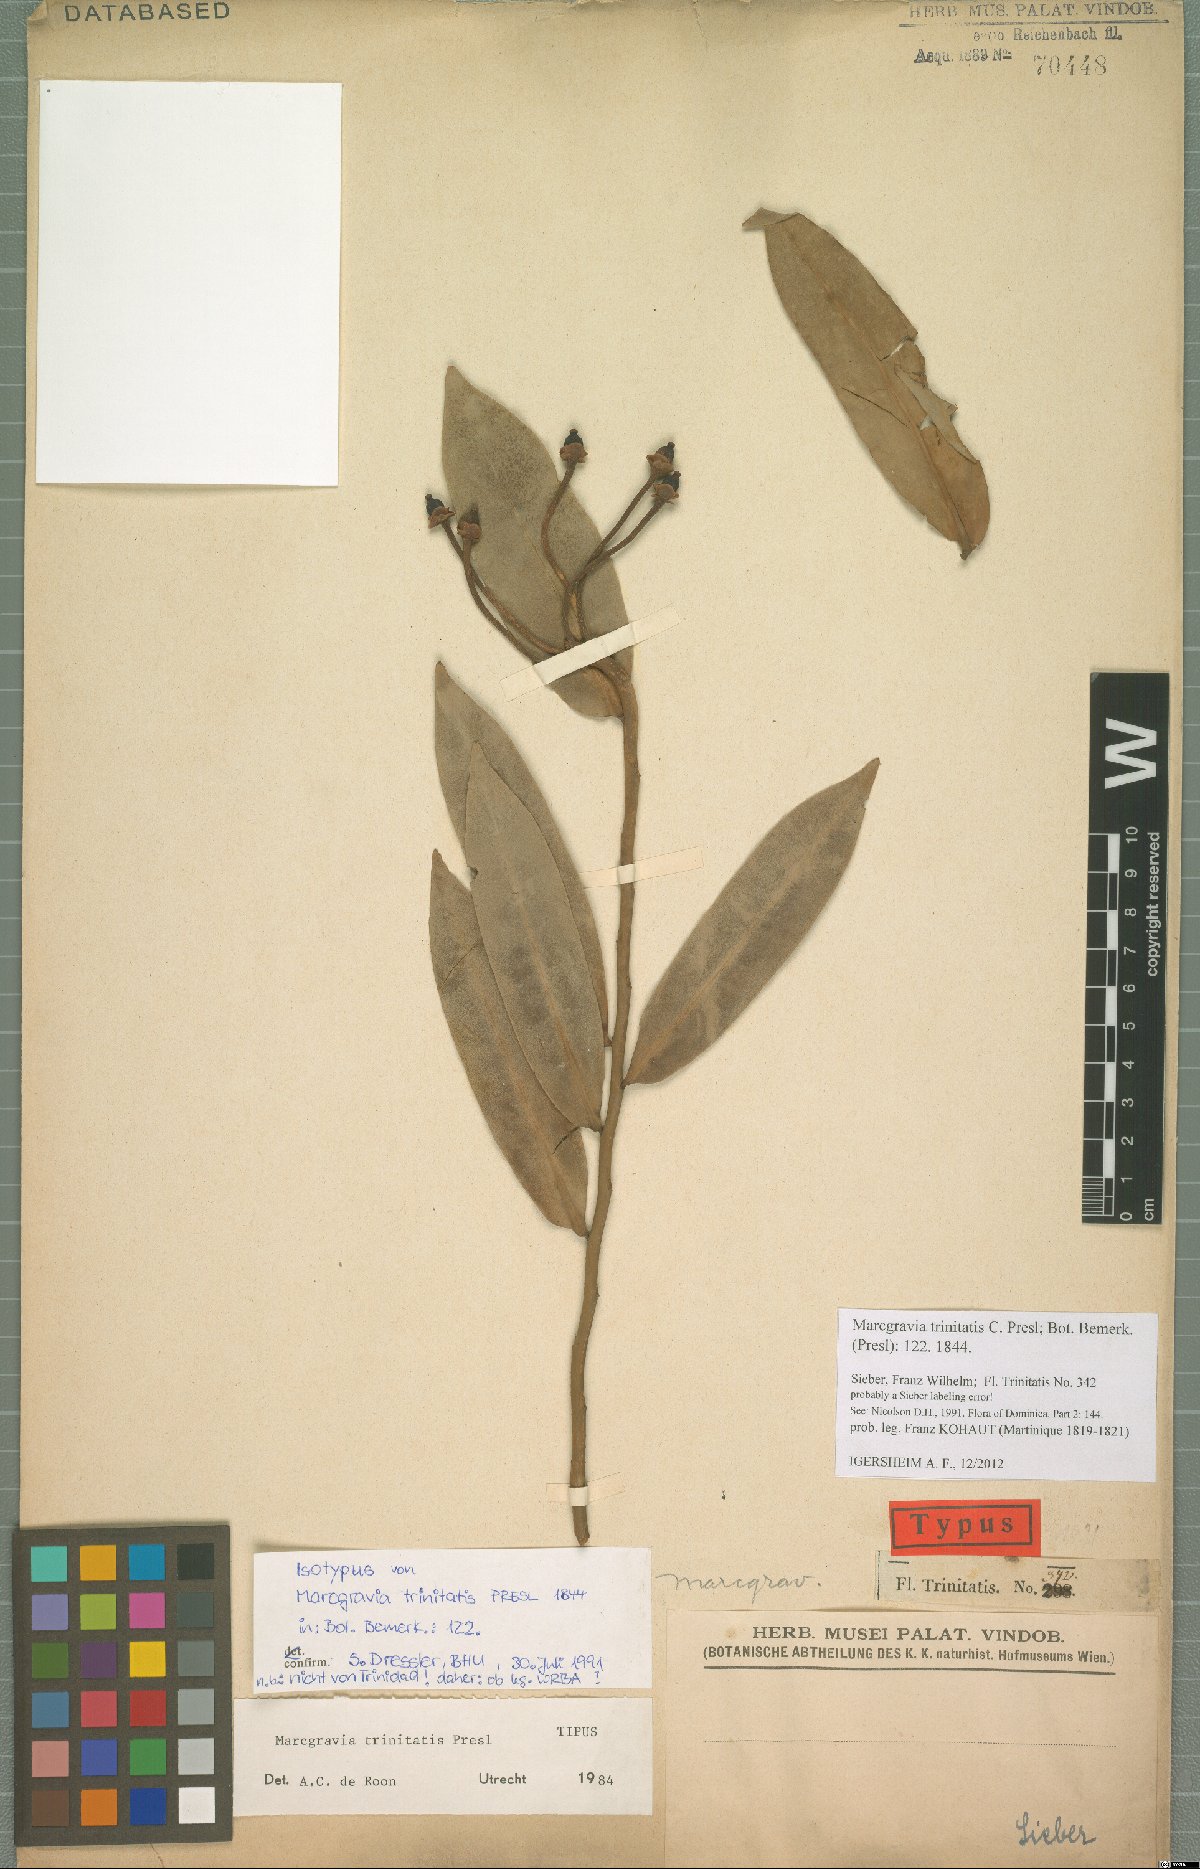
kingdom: Plantae
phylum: Tracheophyta
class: Magnoliopsida
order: Ericales
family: Marcgraviaceae
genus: Marcgravia
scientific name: Marcgravia trinitatis
